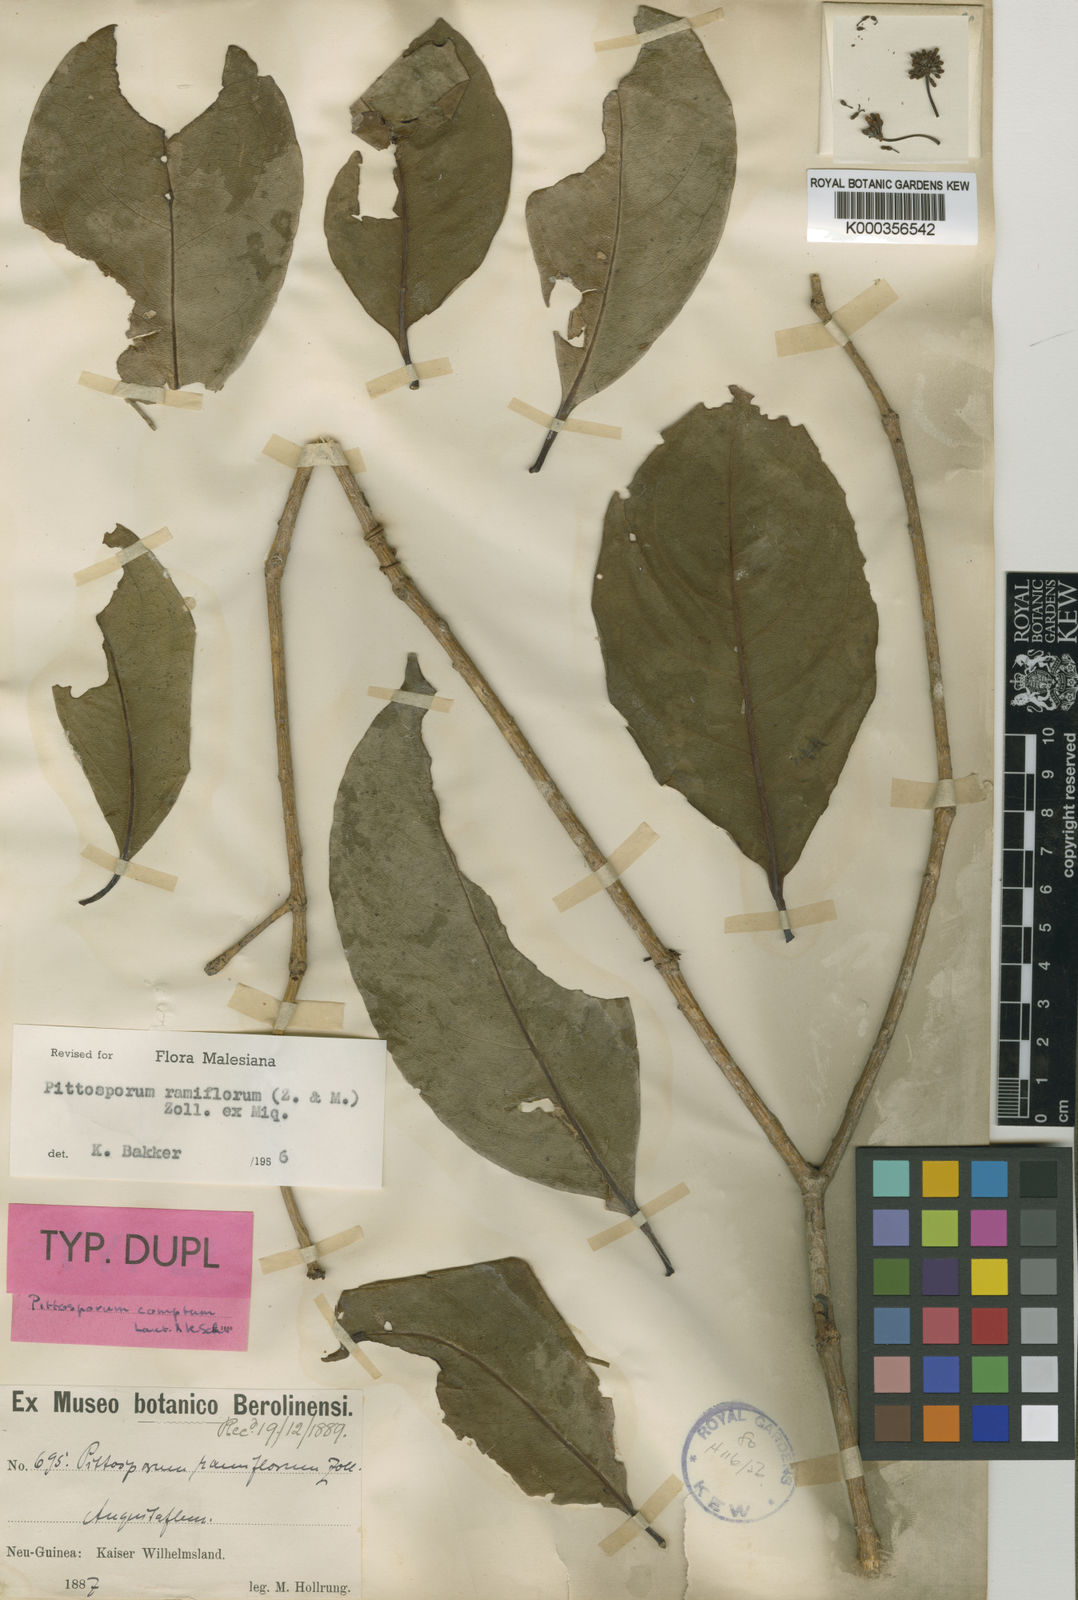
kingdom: Plantae
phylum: Tracheophyta
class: Magnoliopsida
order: Apiales
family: Pittosporaceae
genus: Pittosporum
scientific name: Pittosporum ramiflorum
